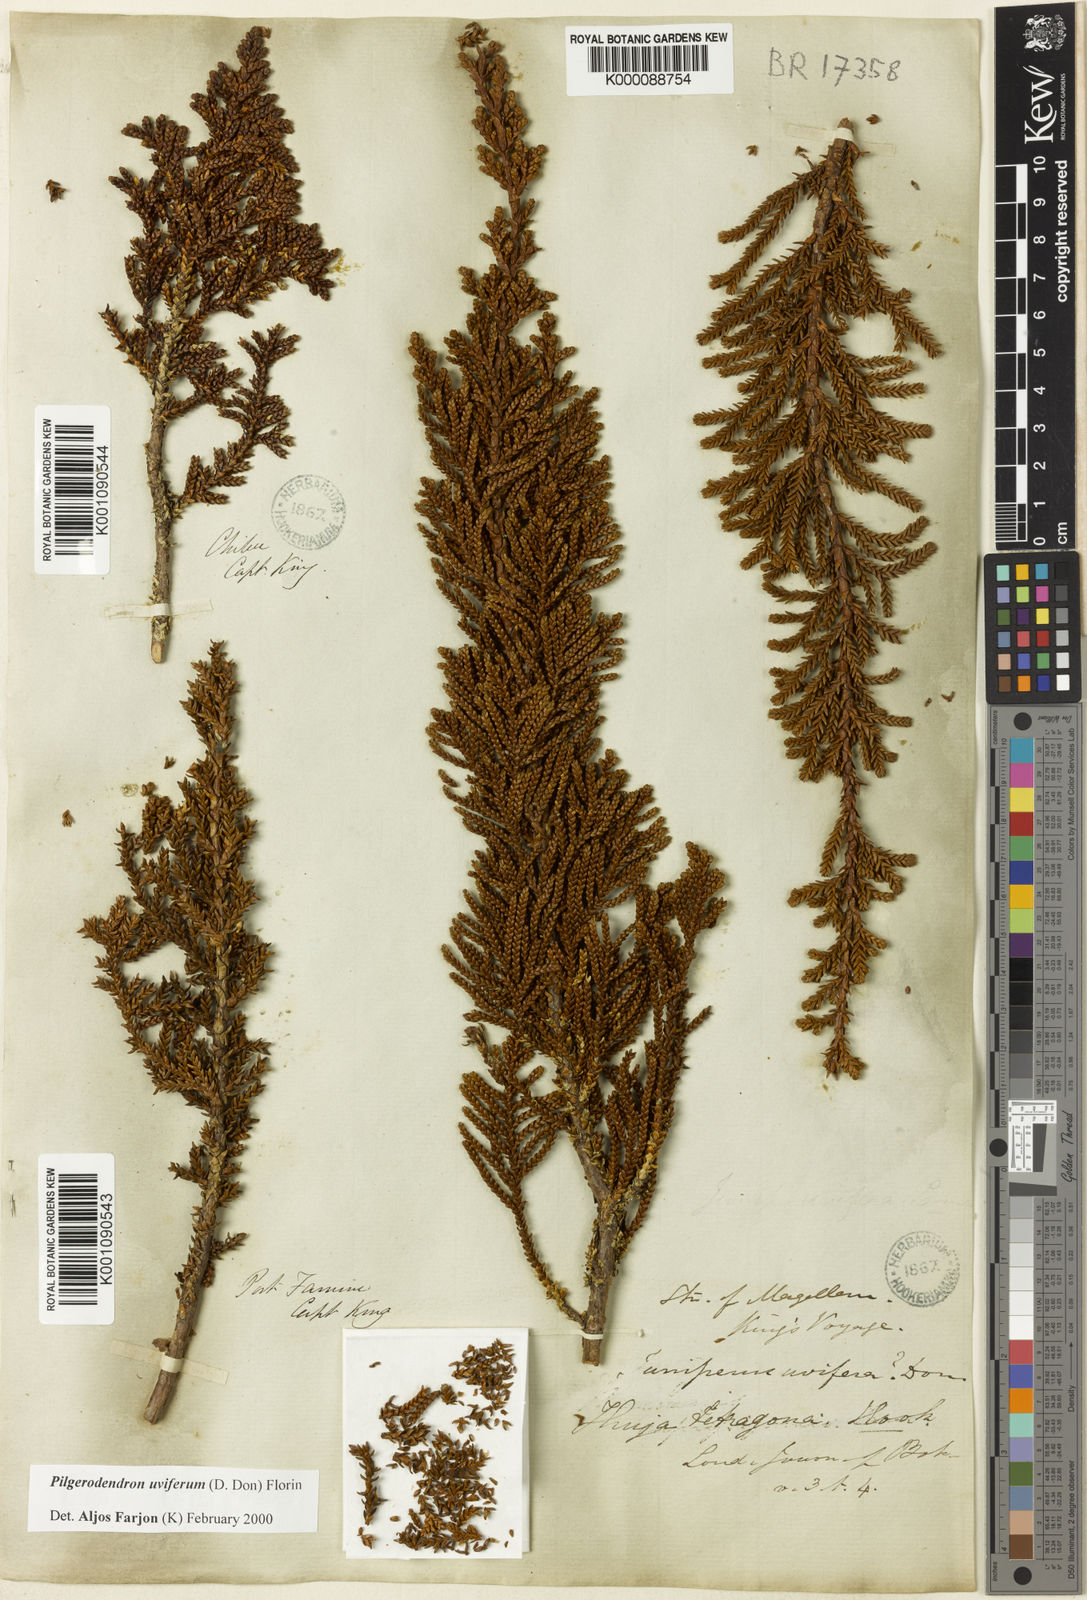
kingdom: Plantae
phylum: Tracheophyta
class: Pinopsida
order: Pinales
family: Cupressaceae
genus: Pilgerodendron
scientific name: Pilgerodendron uviferum
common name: Guaitecas cypress
